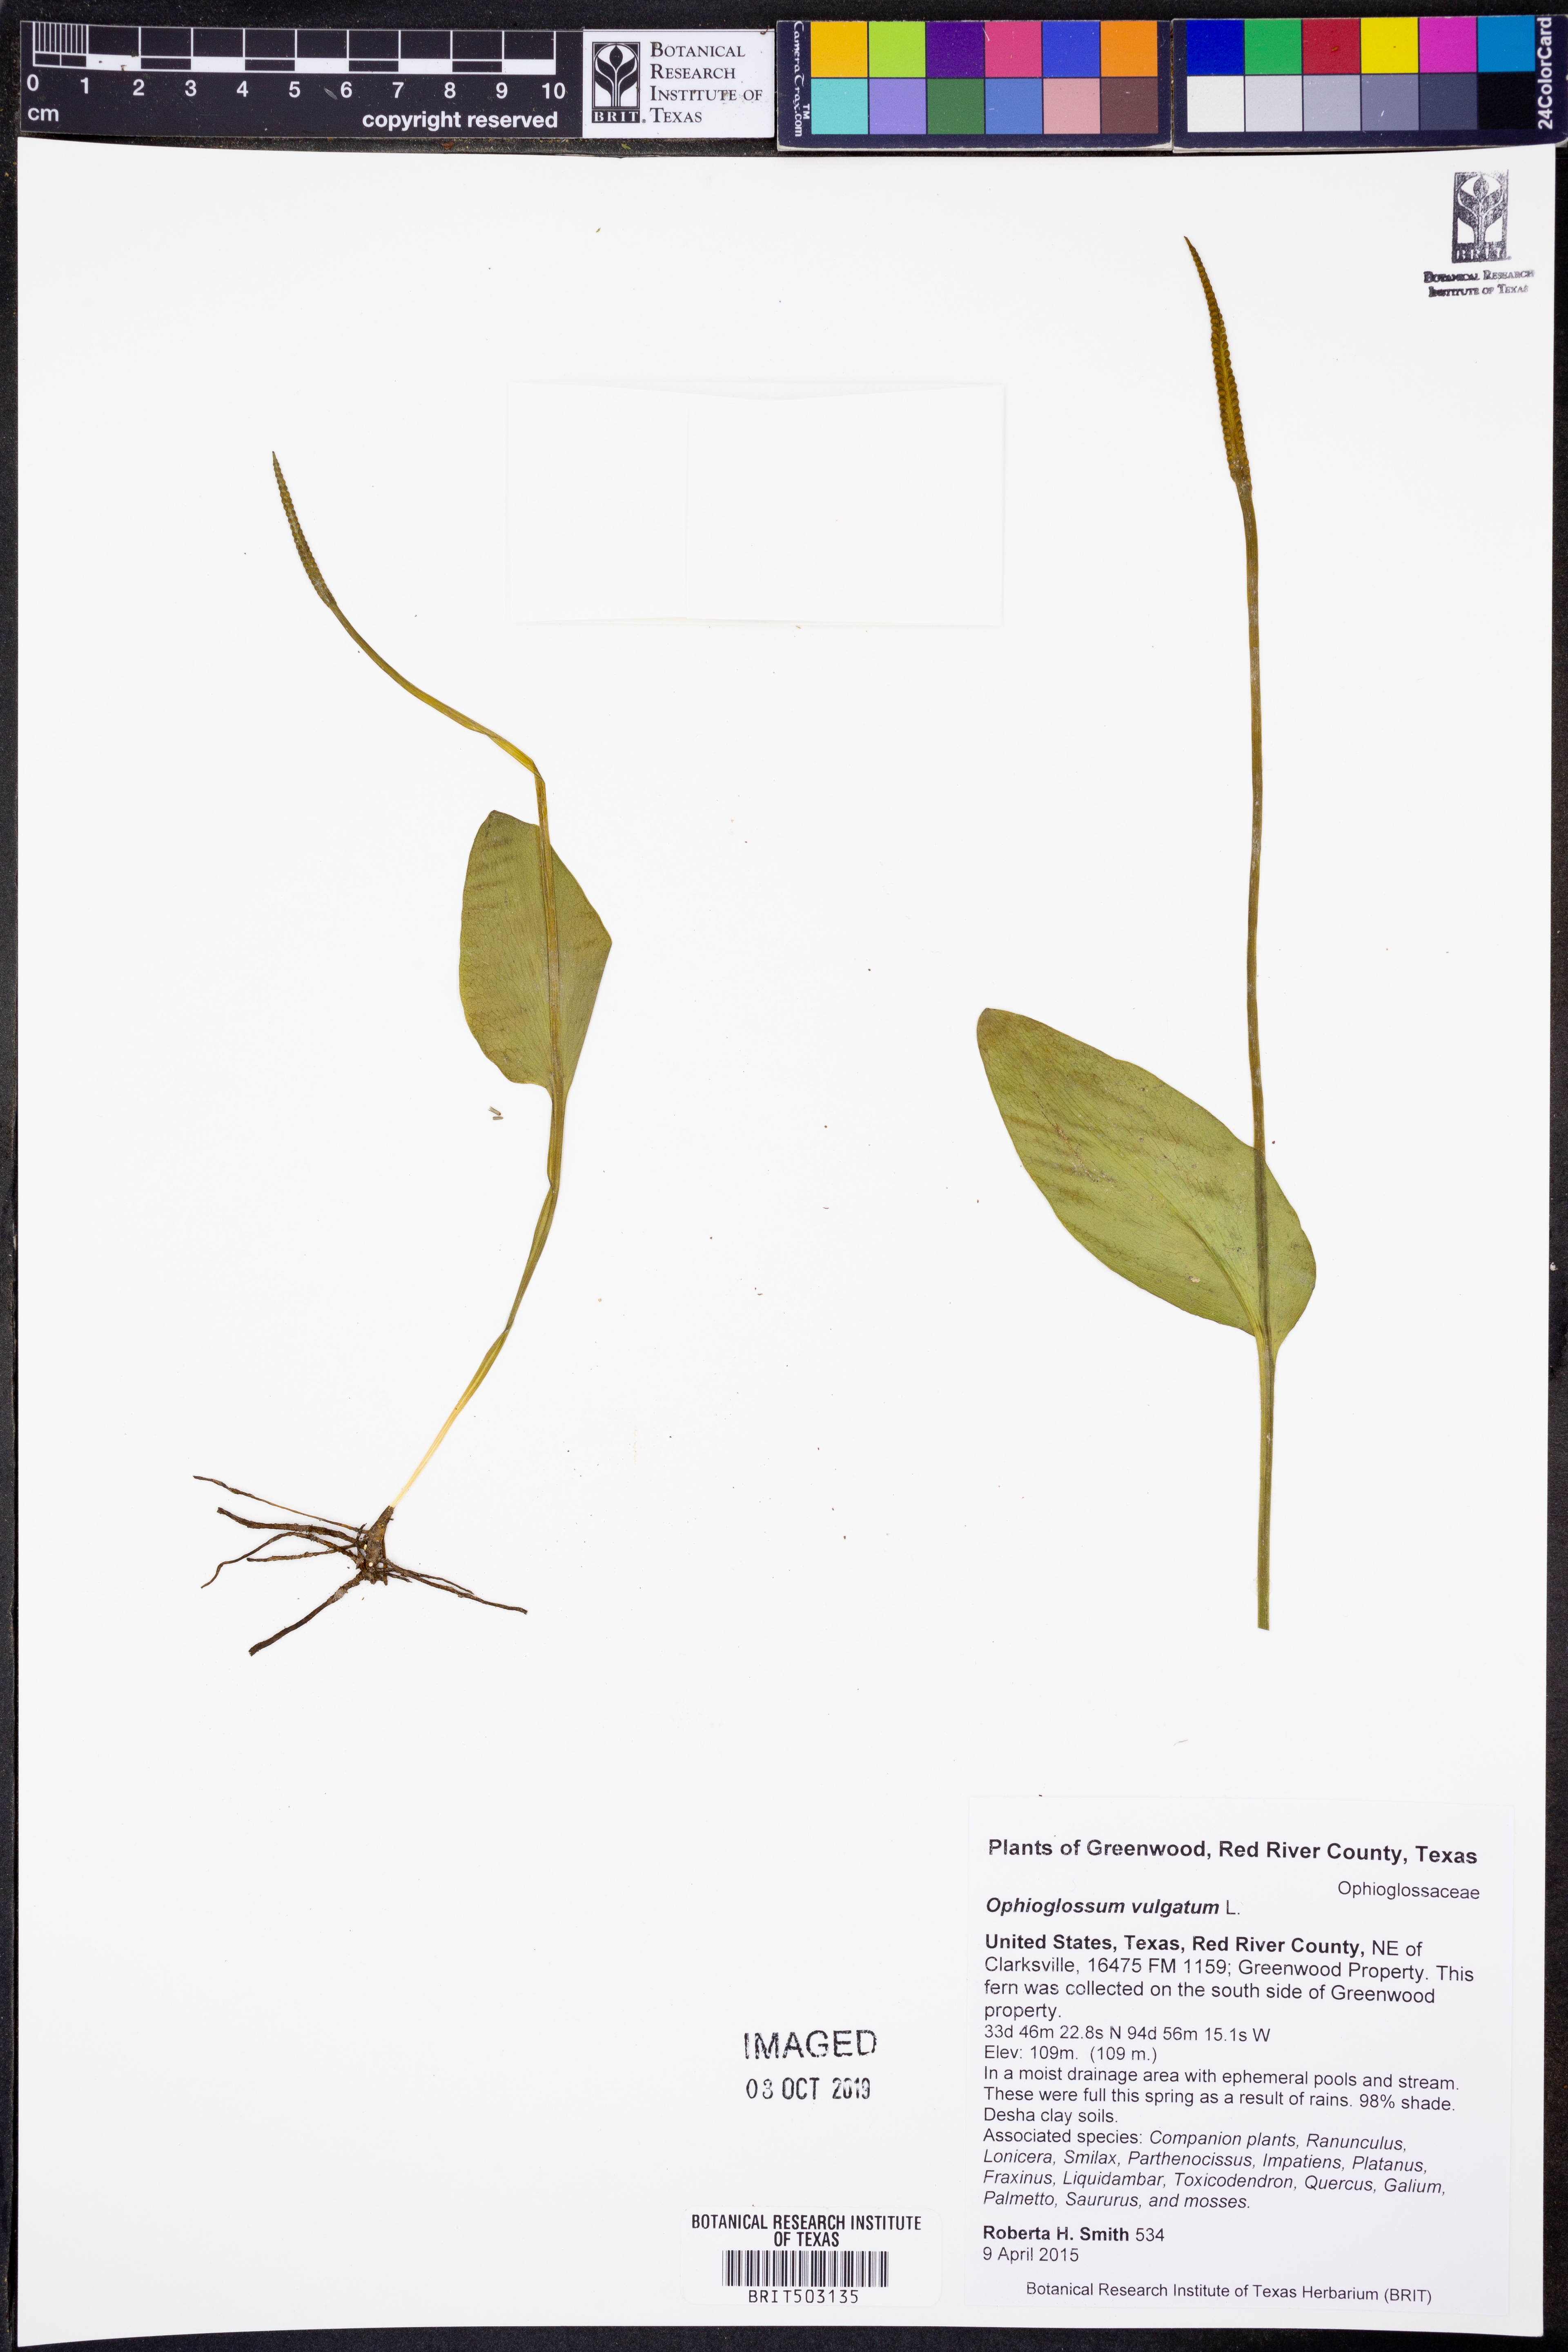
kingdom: Plantae
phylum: Tracheophyta
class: Polypodiopsida
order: Ophioglossales
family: Ophioglossaceae
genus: Ophioglossum
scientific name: Ophioglossum vulgatum
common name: Adder's-tongue
